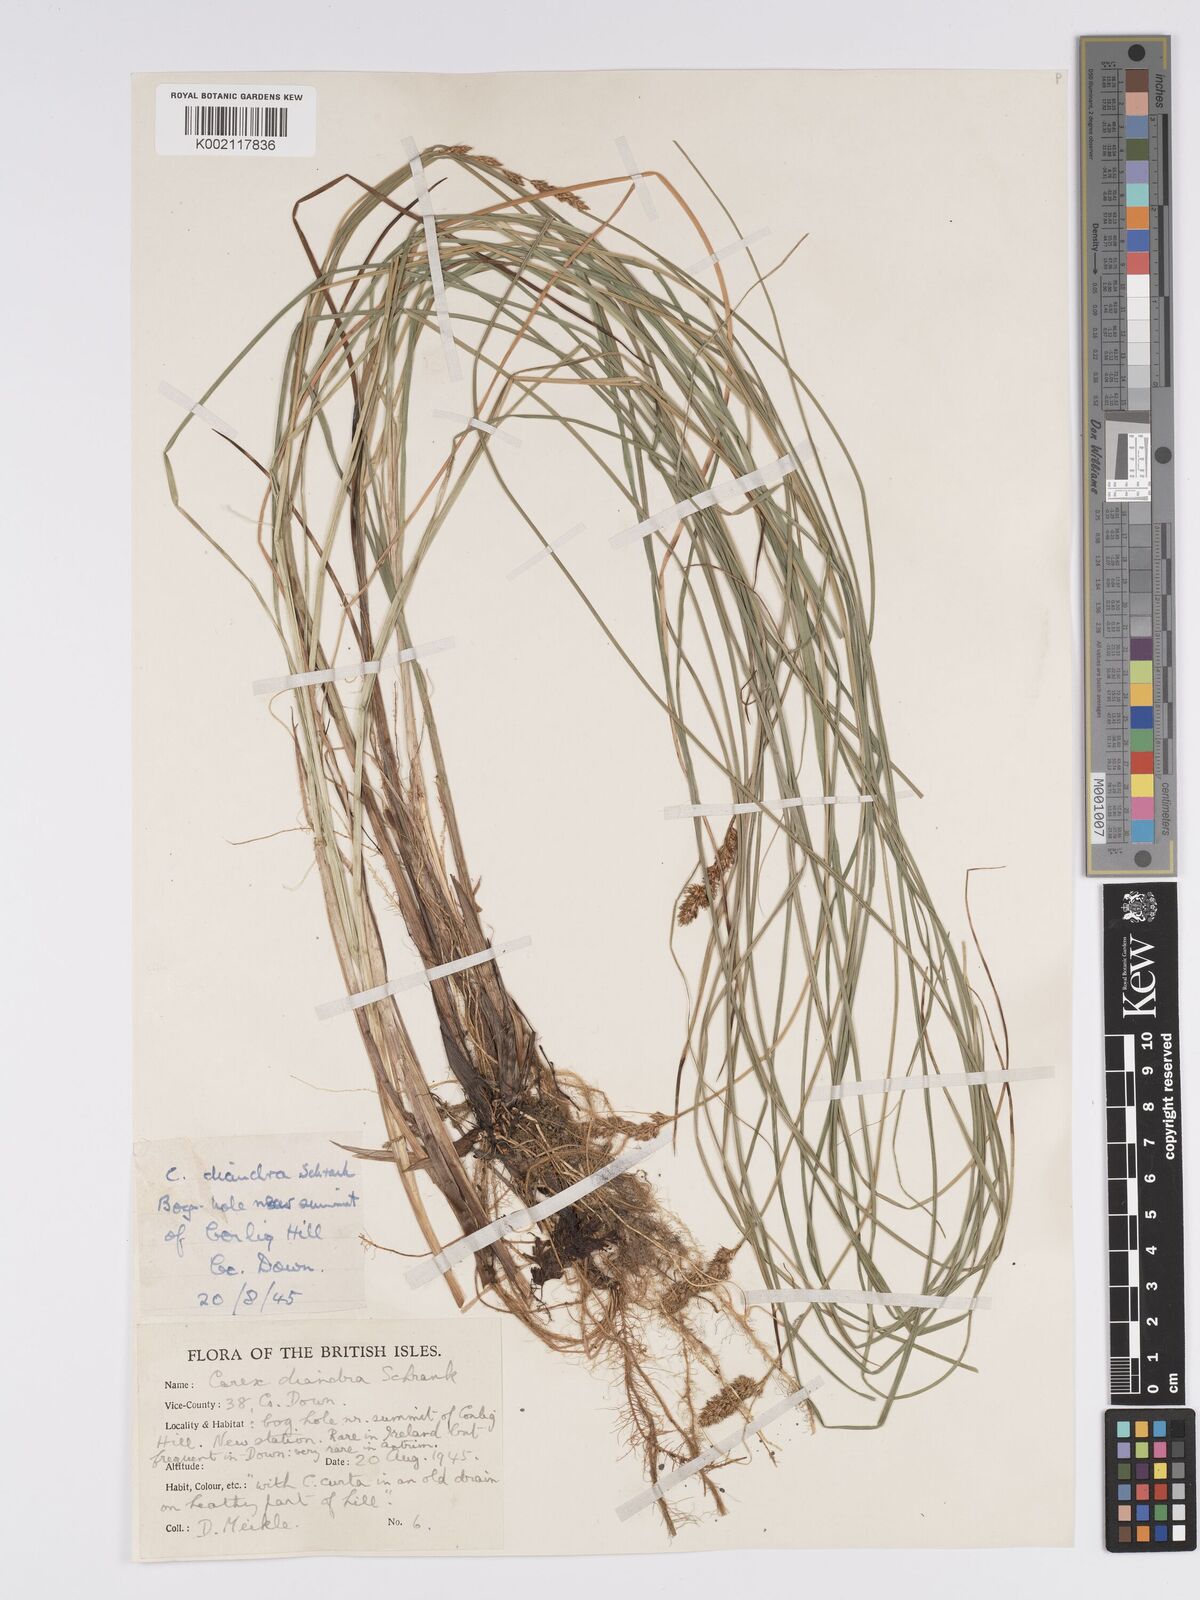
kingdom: Plantae
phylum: Tracheophyta
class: Liliopsida
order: Poales
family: Cyperaceae
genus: Carex
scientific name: Carex diandra
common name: Lesser tussock-sedge
